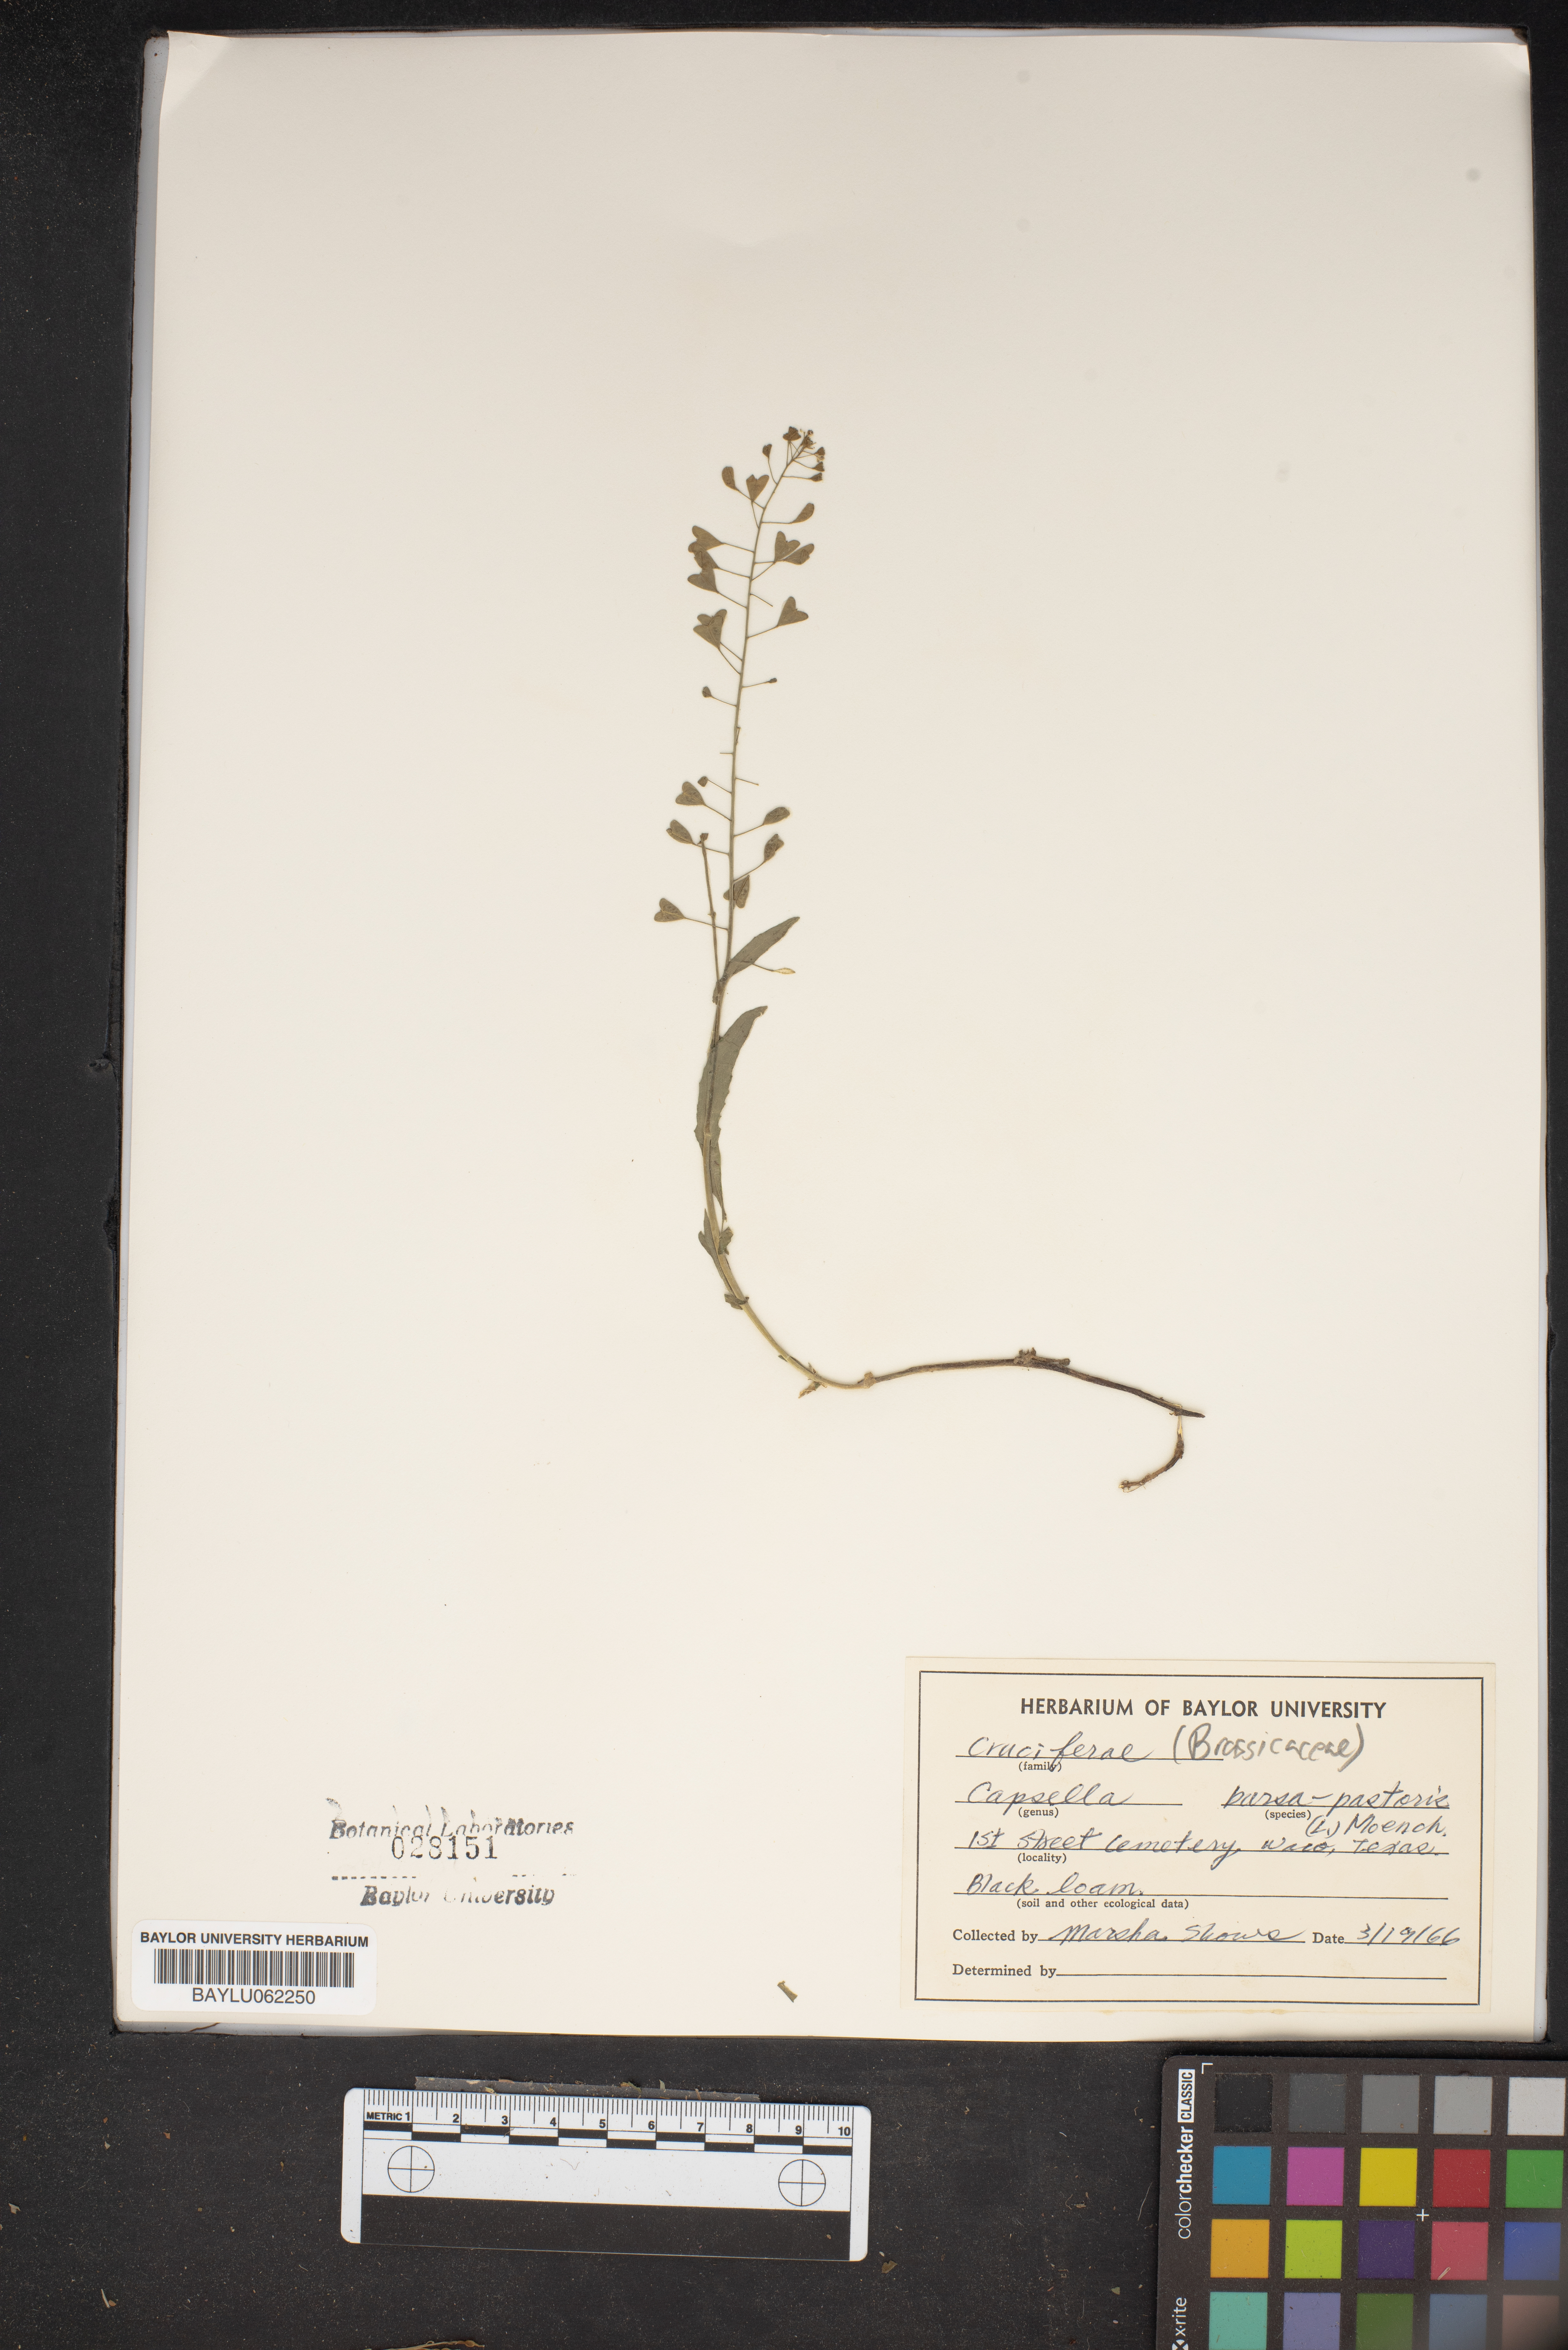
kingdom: Plantae
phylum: Tracheophyta
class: Magnoliopsida
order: Brassicales
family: Brassicaceae
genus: Capsella
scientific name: Capsella bursa-pastoris
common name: Shepherd's purse
